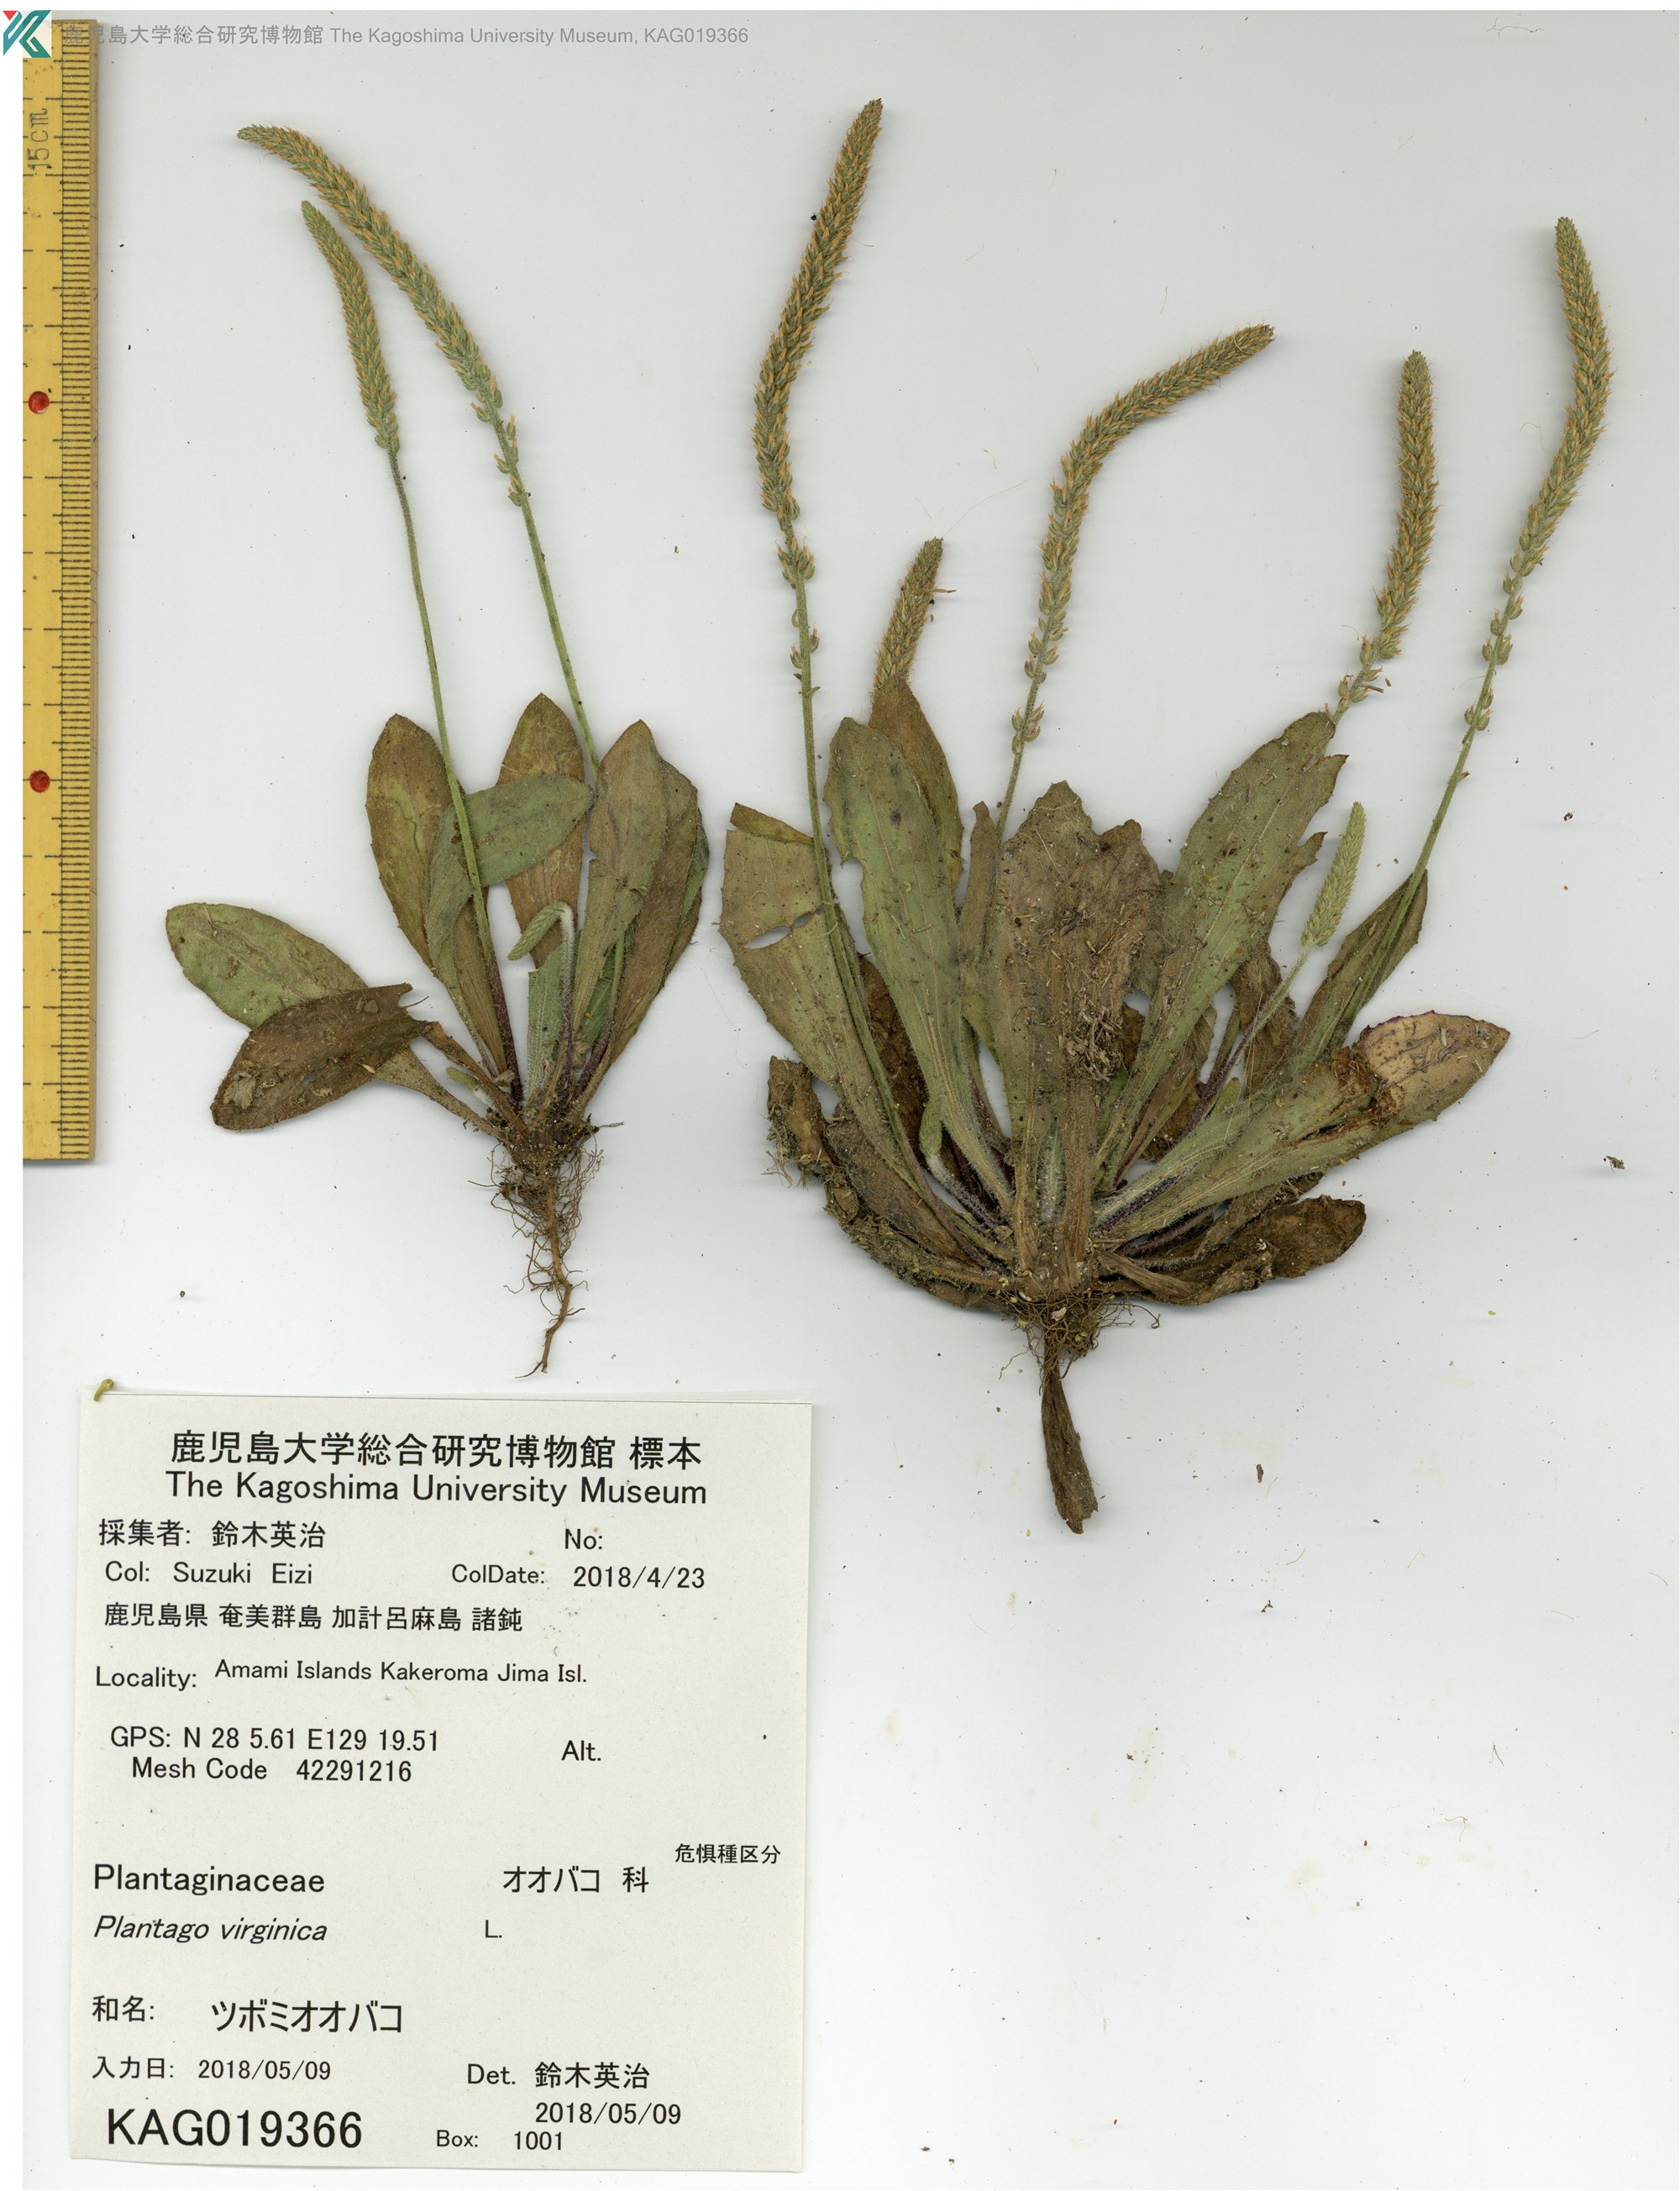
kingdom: Plantae
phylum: Tracheophyta
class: Magnoliopsida
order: Lamiales
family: Plantaginaceae
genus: Plantago
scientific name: Plantago virginica
